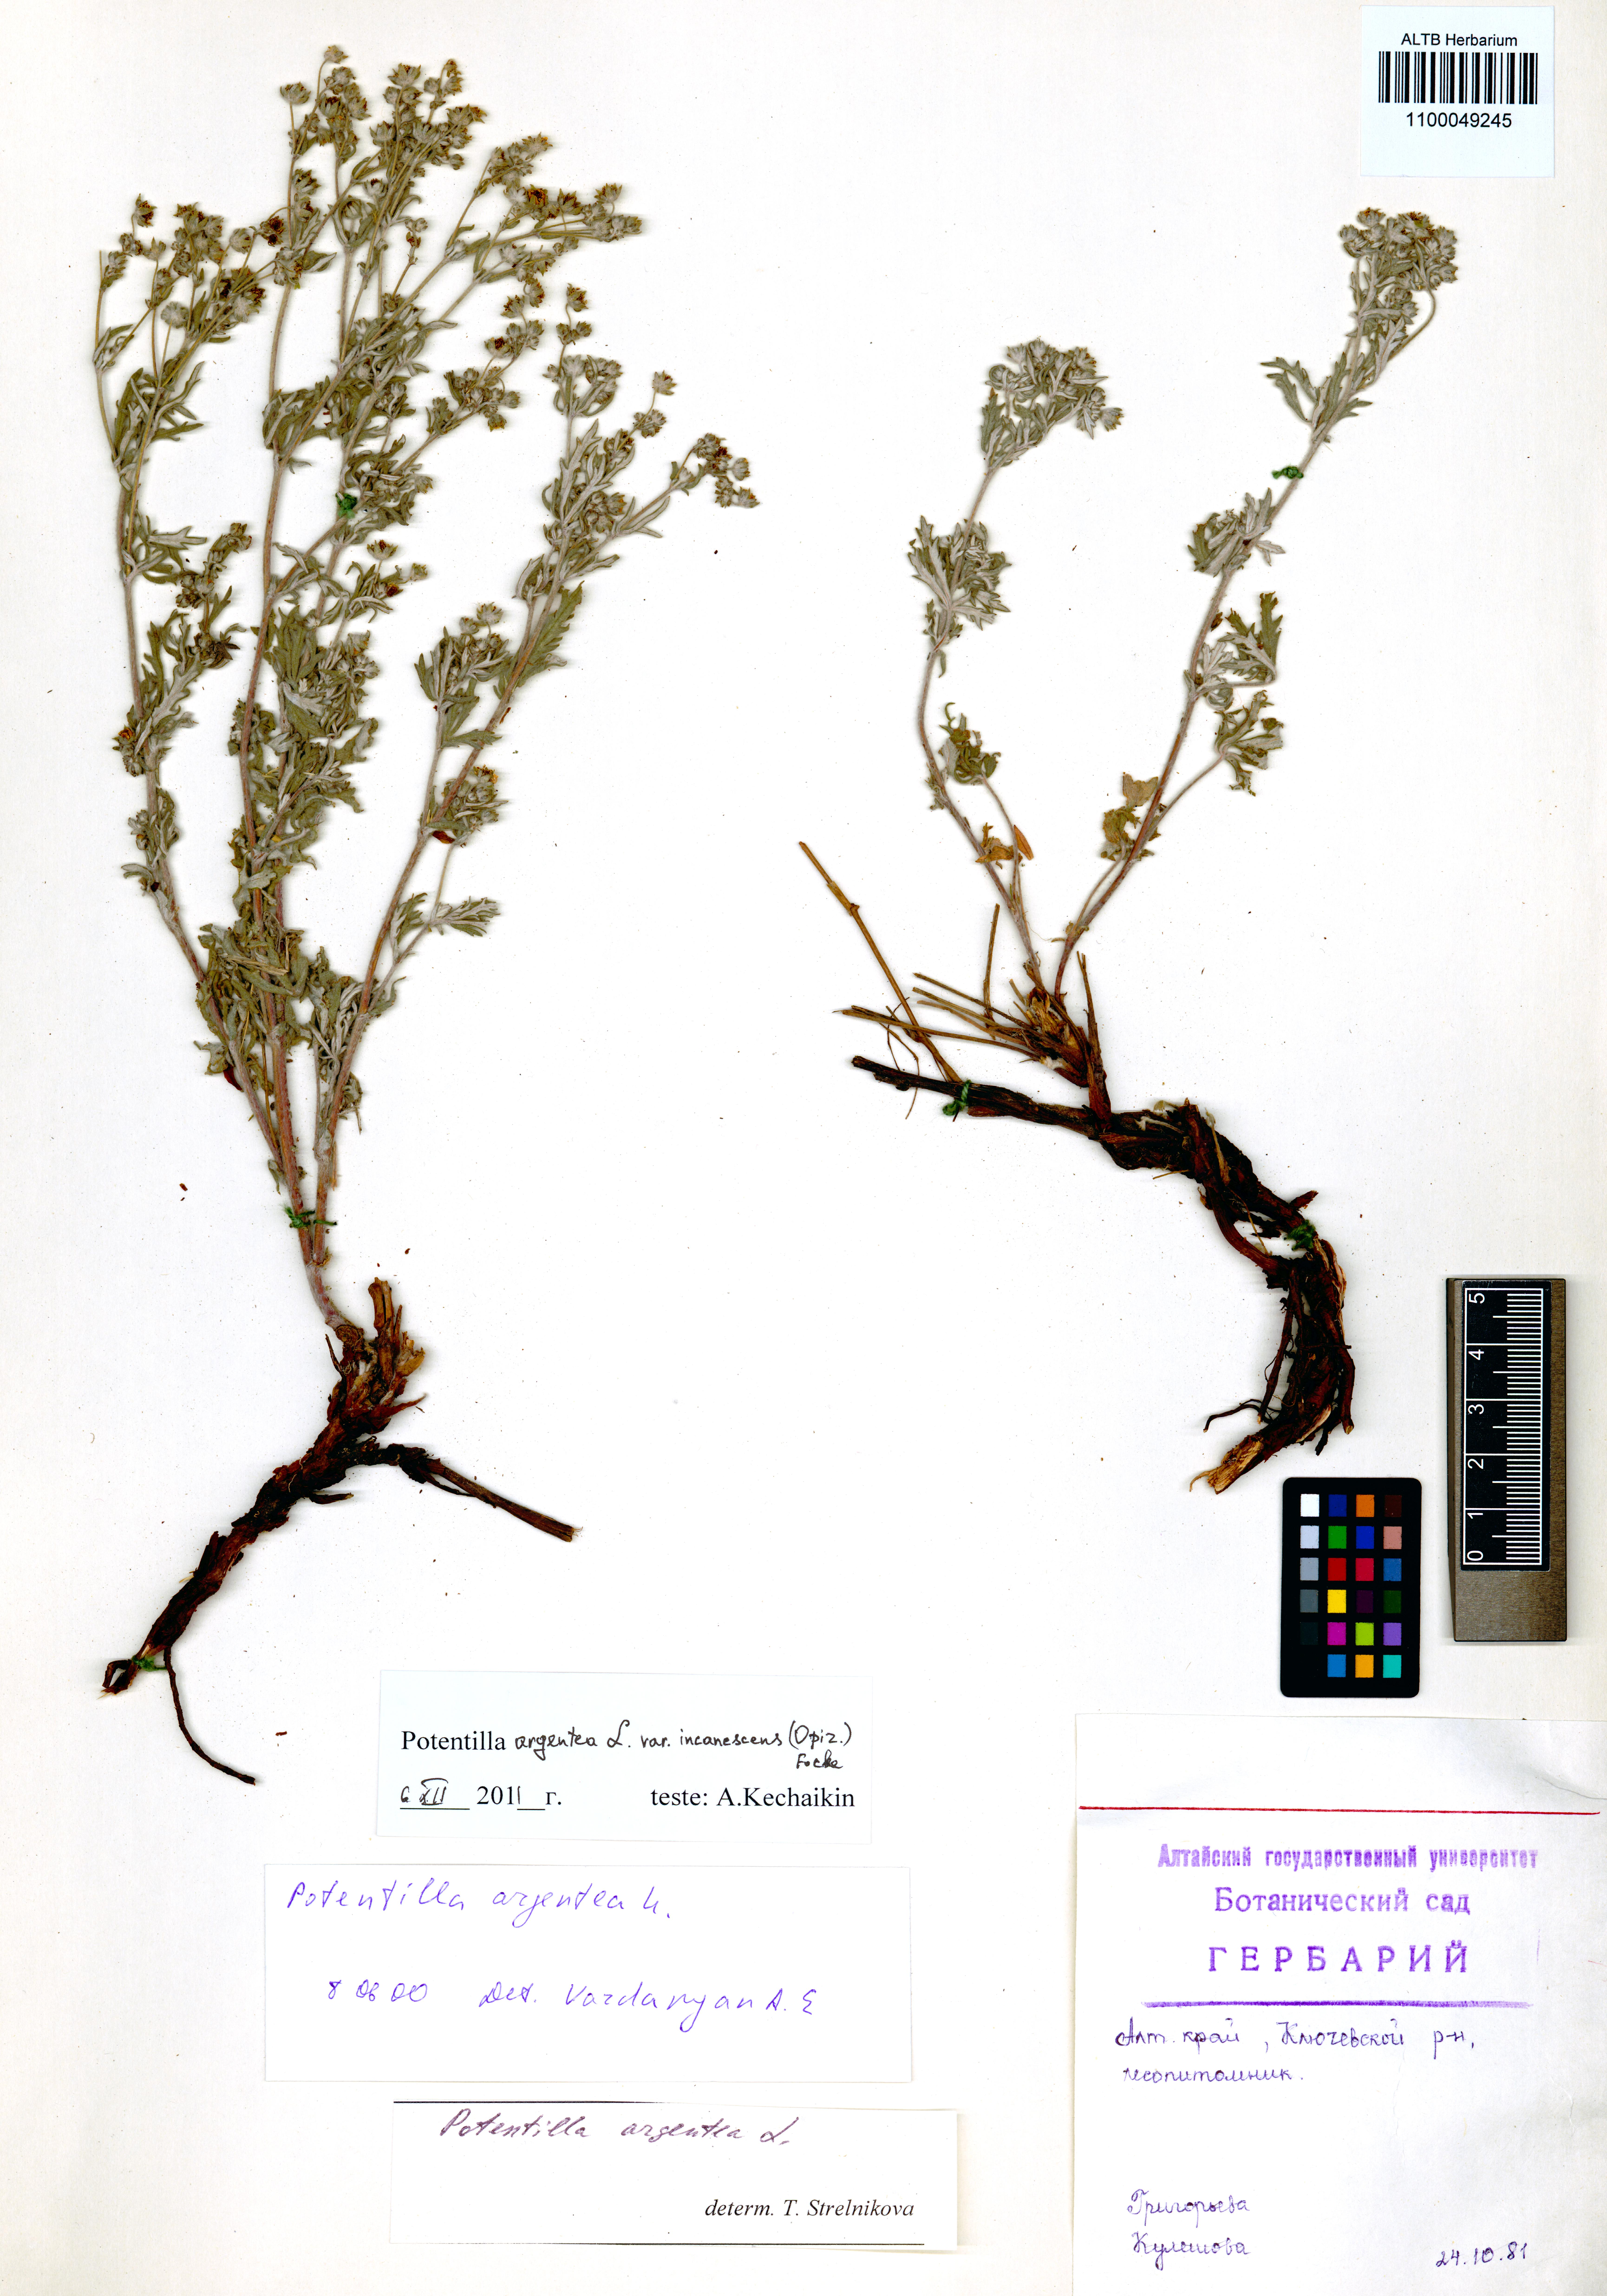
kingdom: Plantae
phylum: Tracheophyta
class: Magnoliopsida
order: Rosales
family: Rosaceae
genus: Potentilla
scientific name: Potentilla argentea
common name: Hoary cinquefoil
